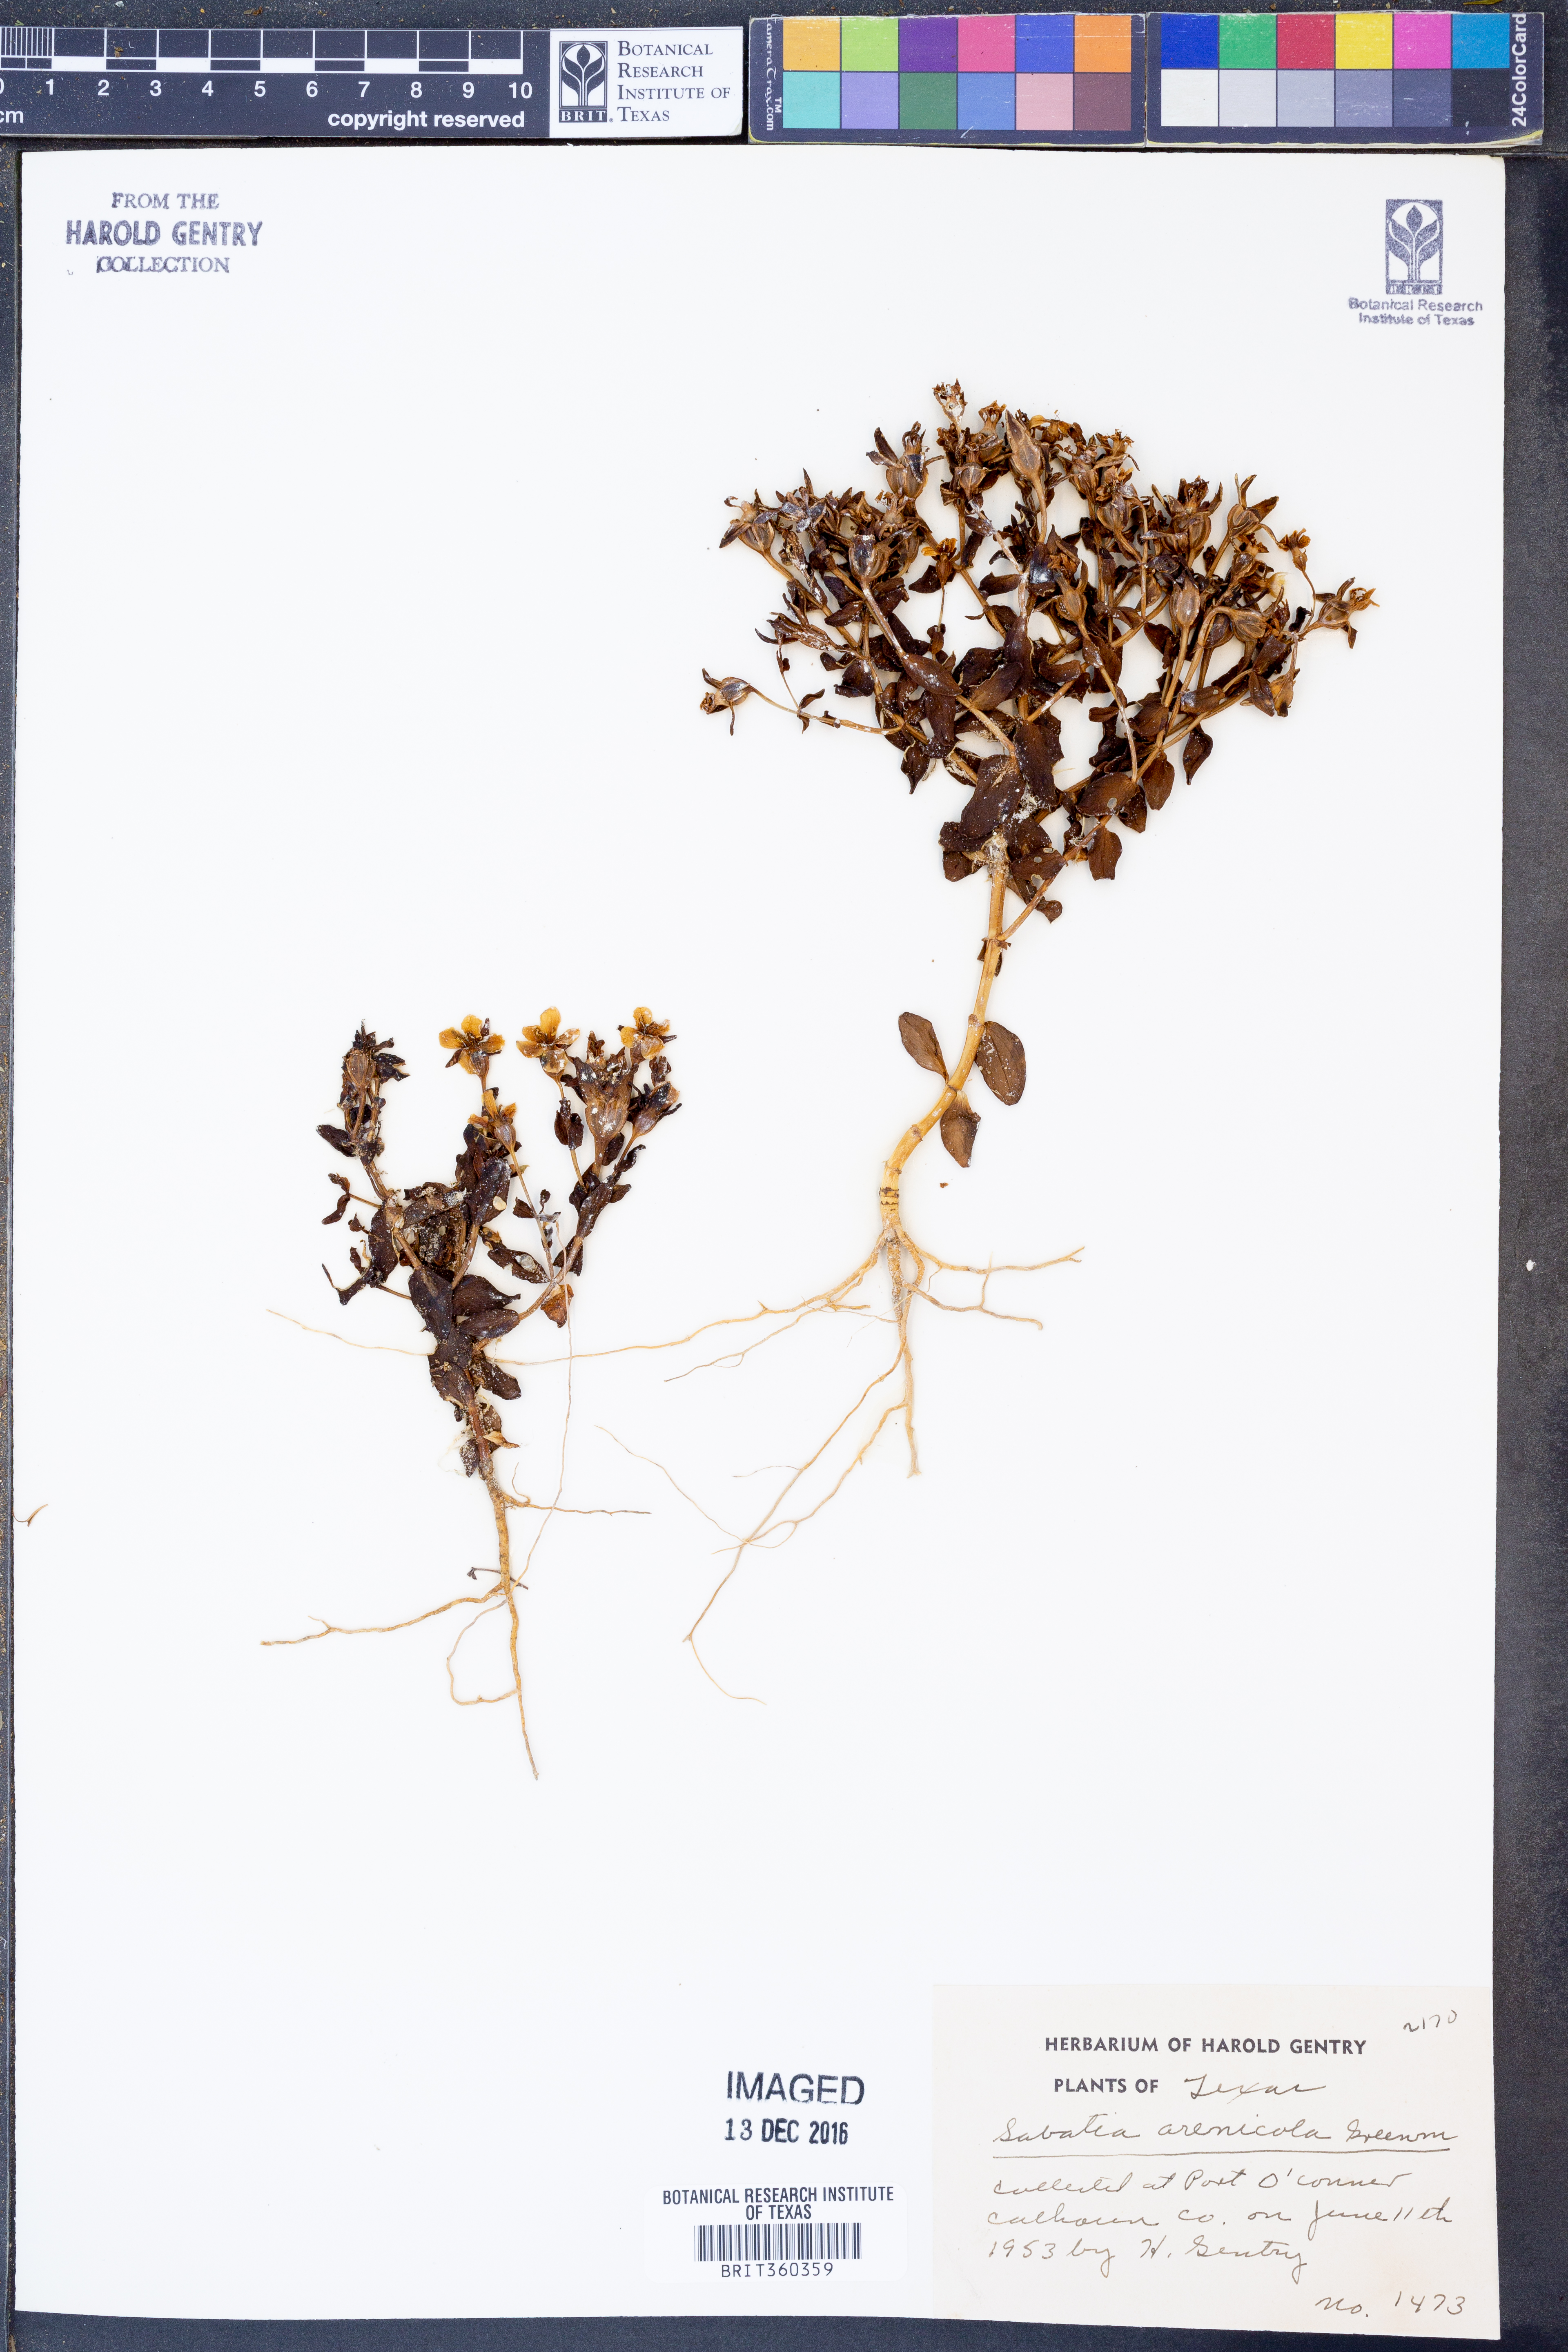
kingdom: Plantae
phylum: Tracheophyta
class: Magnoliopsida
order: Gentianales
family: Gentianaceae
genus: Sabatia
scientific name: Sabatia arenicola
